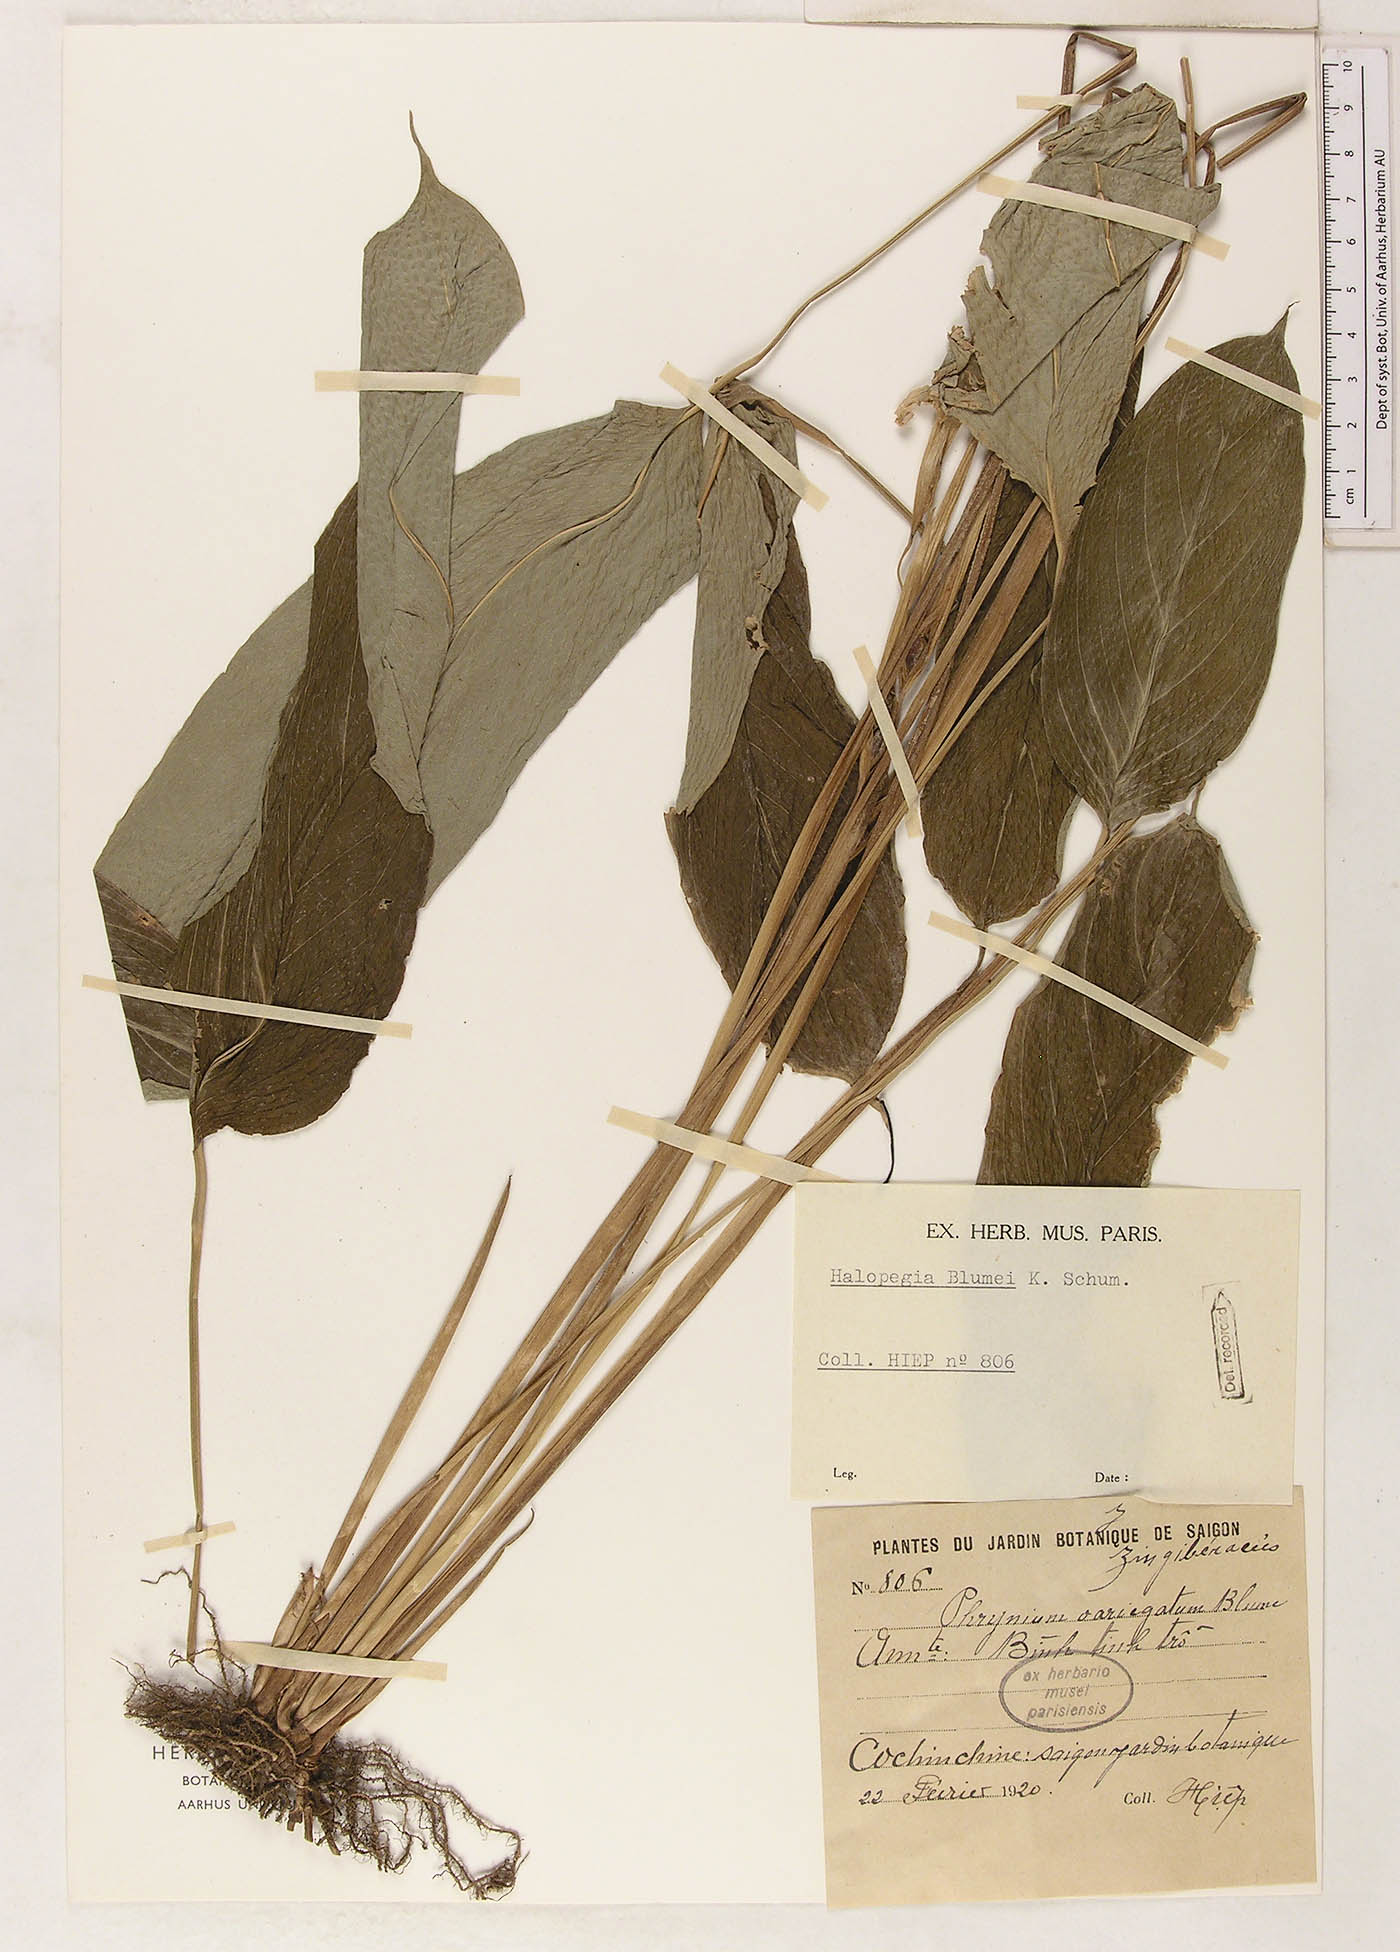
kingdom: Plantae
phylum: Tracheophyta
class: Liliopsida
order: Zingiberales
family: Marantaceae
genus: Halopegia
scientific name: Halopegia blumei
